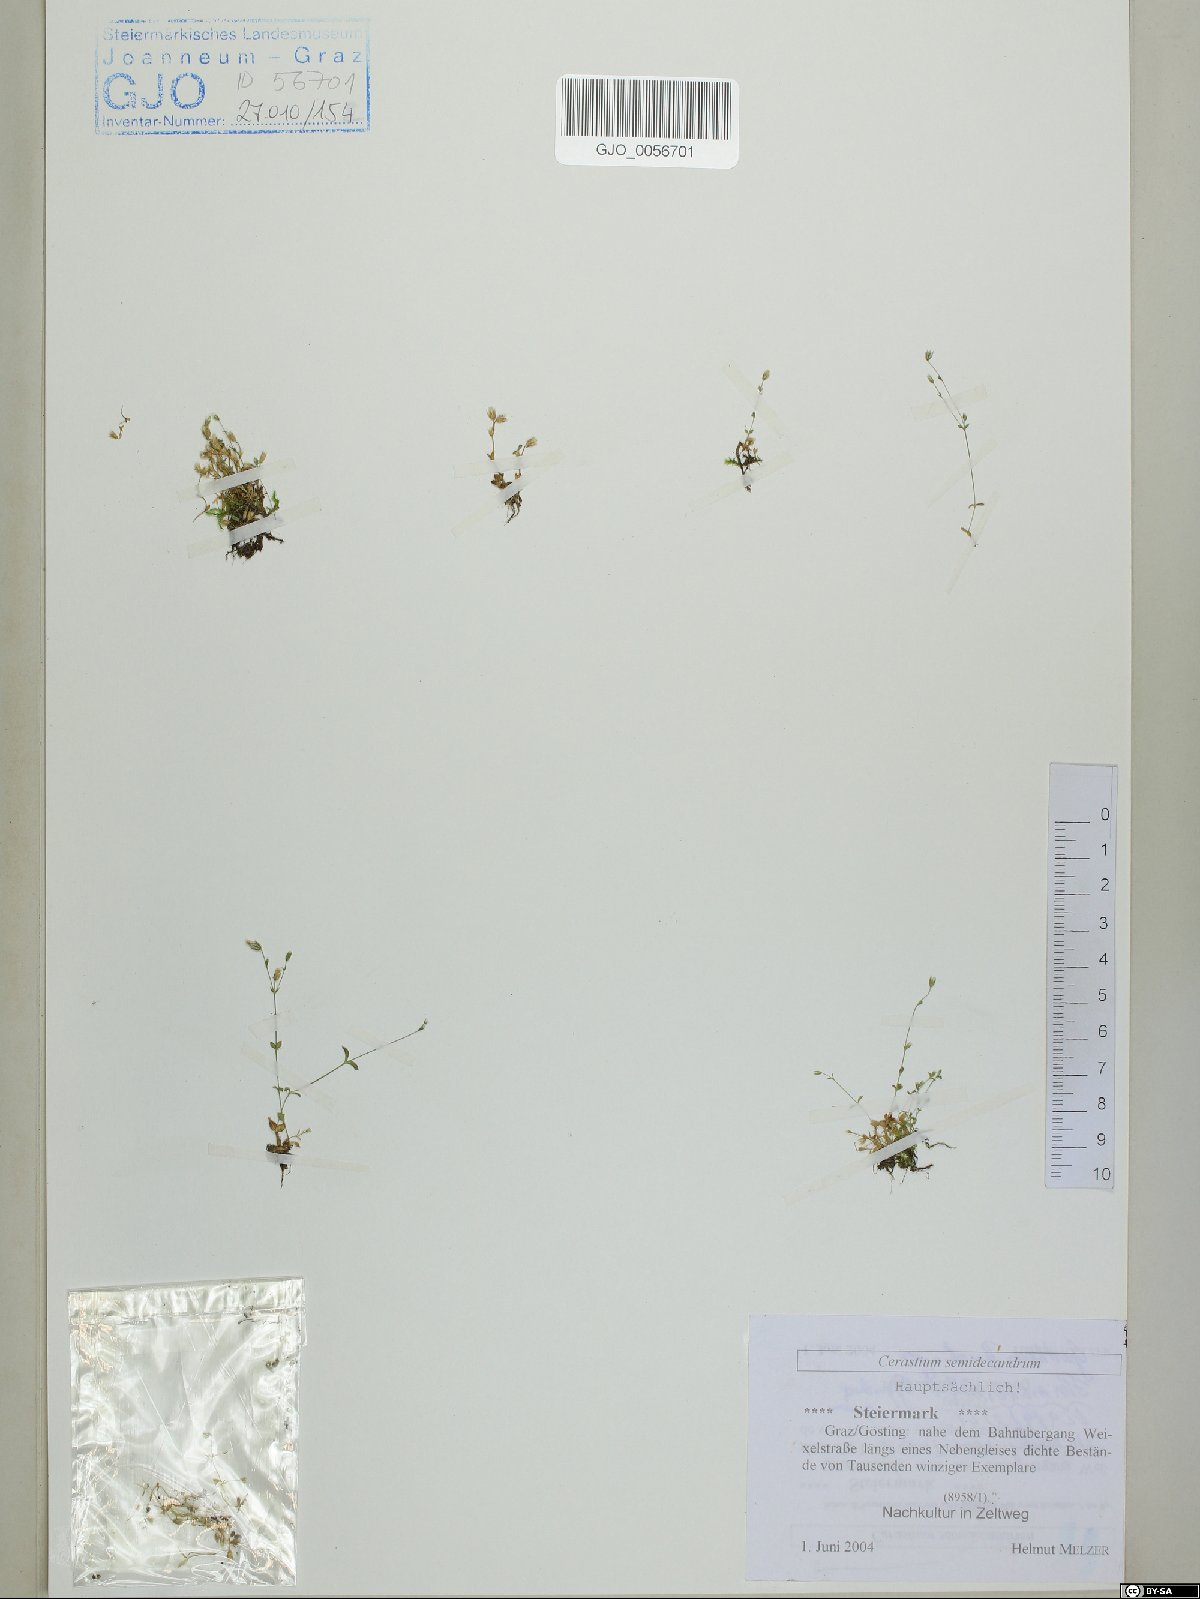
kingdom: Plantae
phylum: Tracheophyta
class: Magnoliopsida
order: Caryophyllales
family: Caryophyllaceae
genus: Cerastium
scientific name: Cerastium semidecandrum
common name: Little mouse-ear
